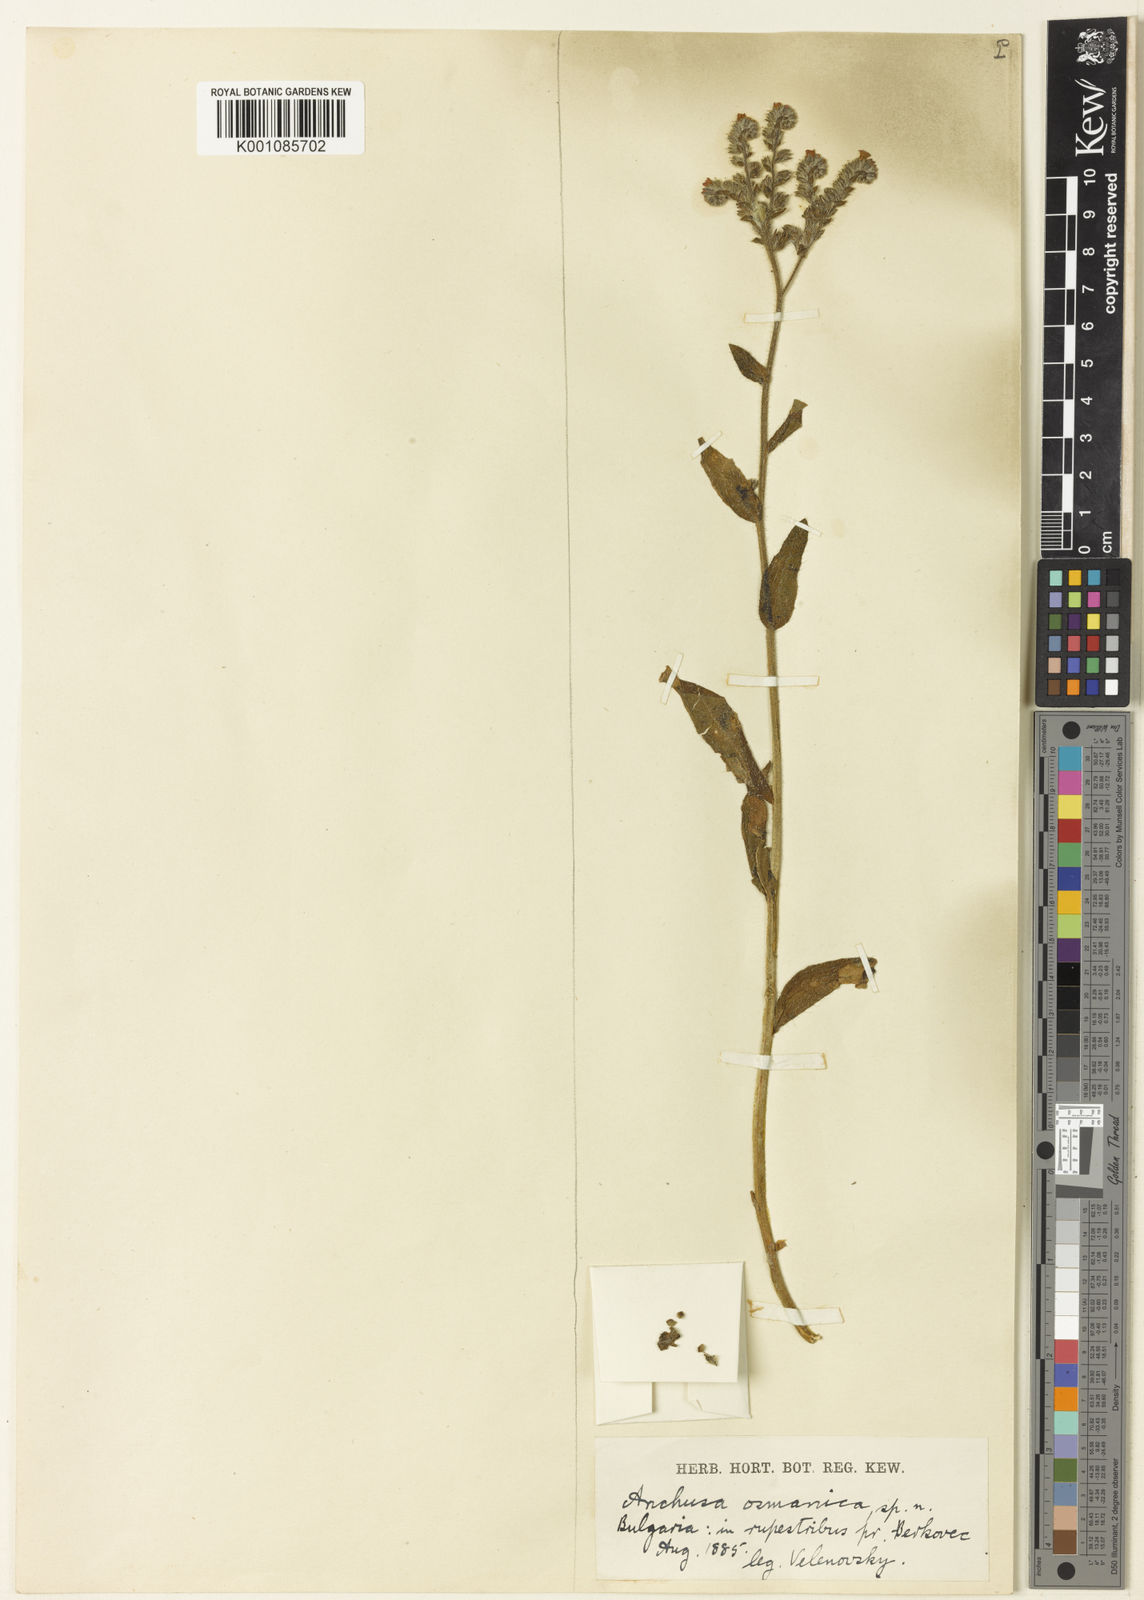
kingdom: Plantae
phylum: Tracheophyta
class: Magnoliopsida
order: Boraginales
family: Boraginaceae
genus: Anchusa
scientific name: Anchusa officinalis
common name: Alkanet
